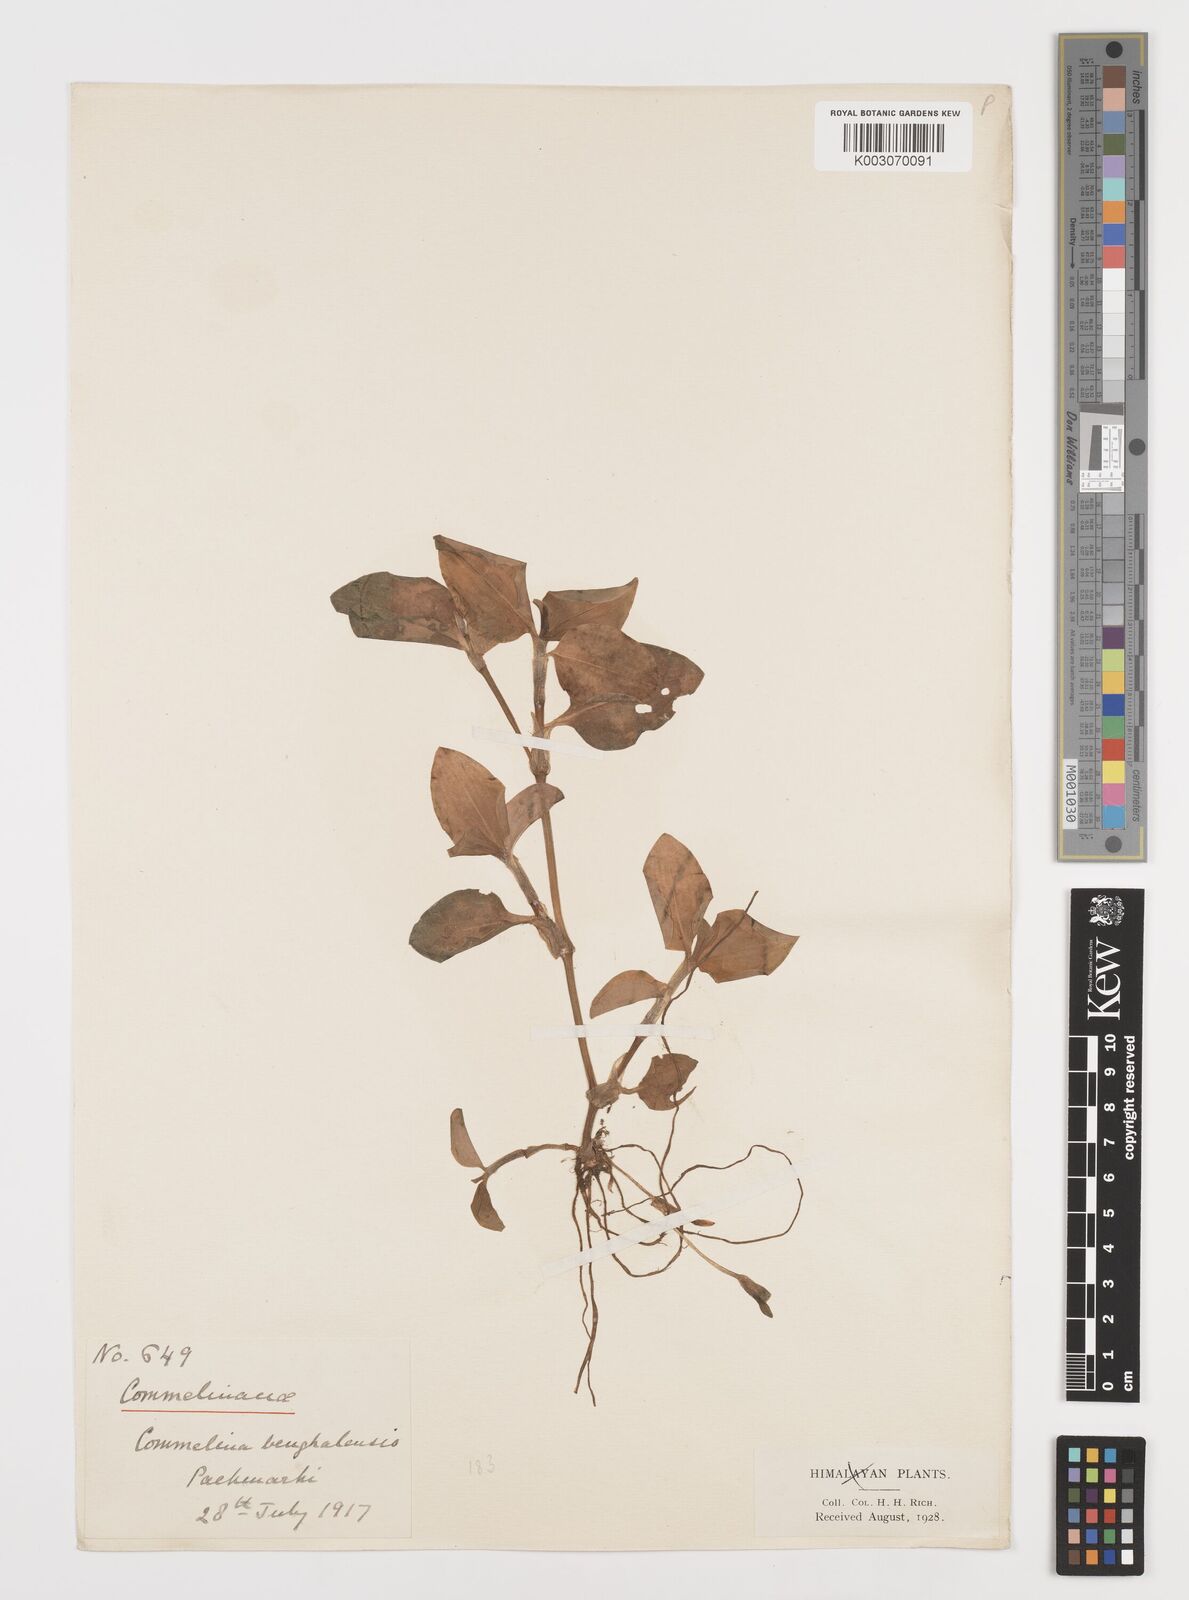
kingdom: Plantae
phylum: Tracheophyta
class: Liliopsida
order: Commelinales
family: Commelinaceae
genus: Commelina
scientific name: Commelina benghalensis
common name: Jio
